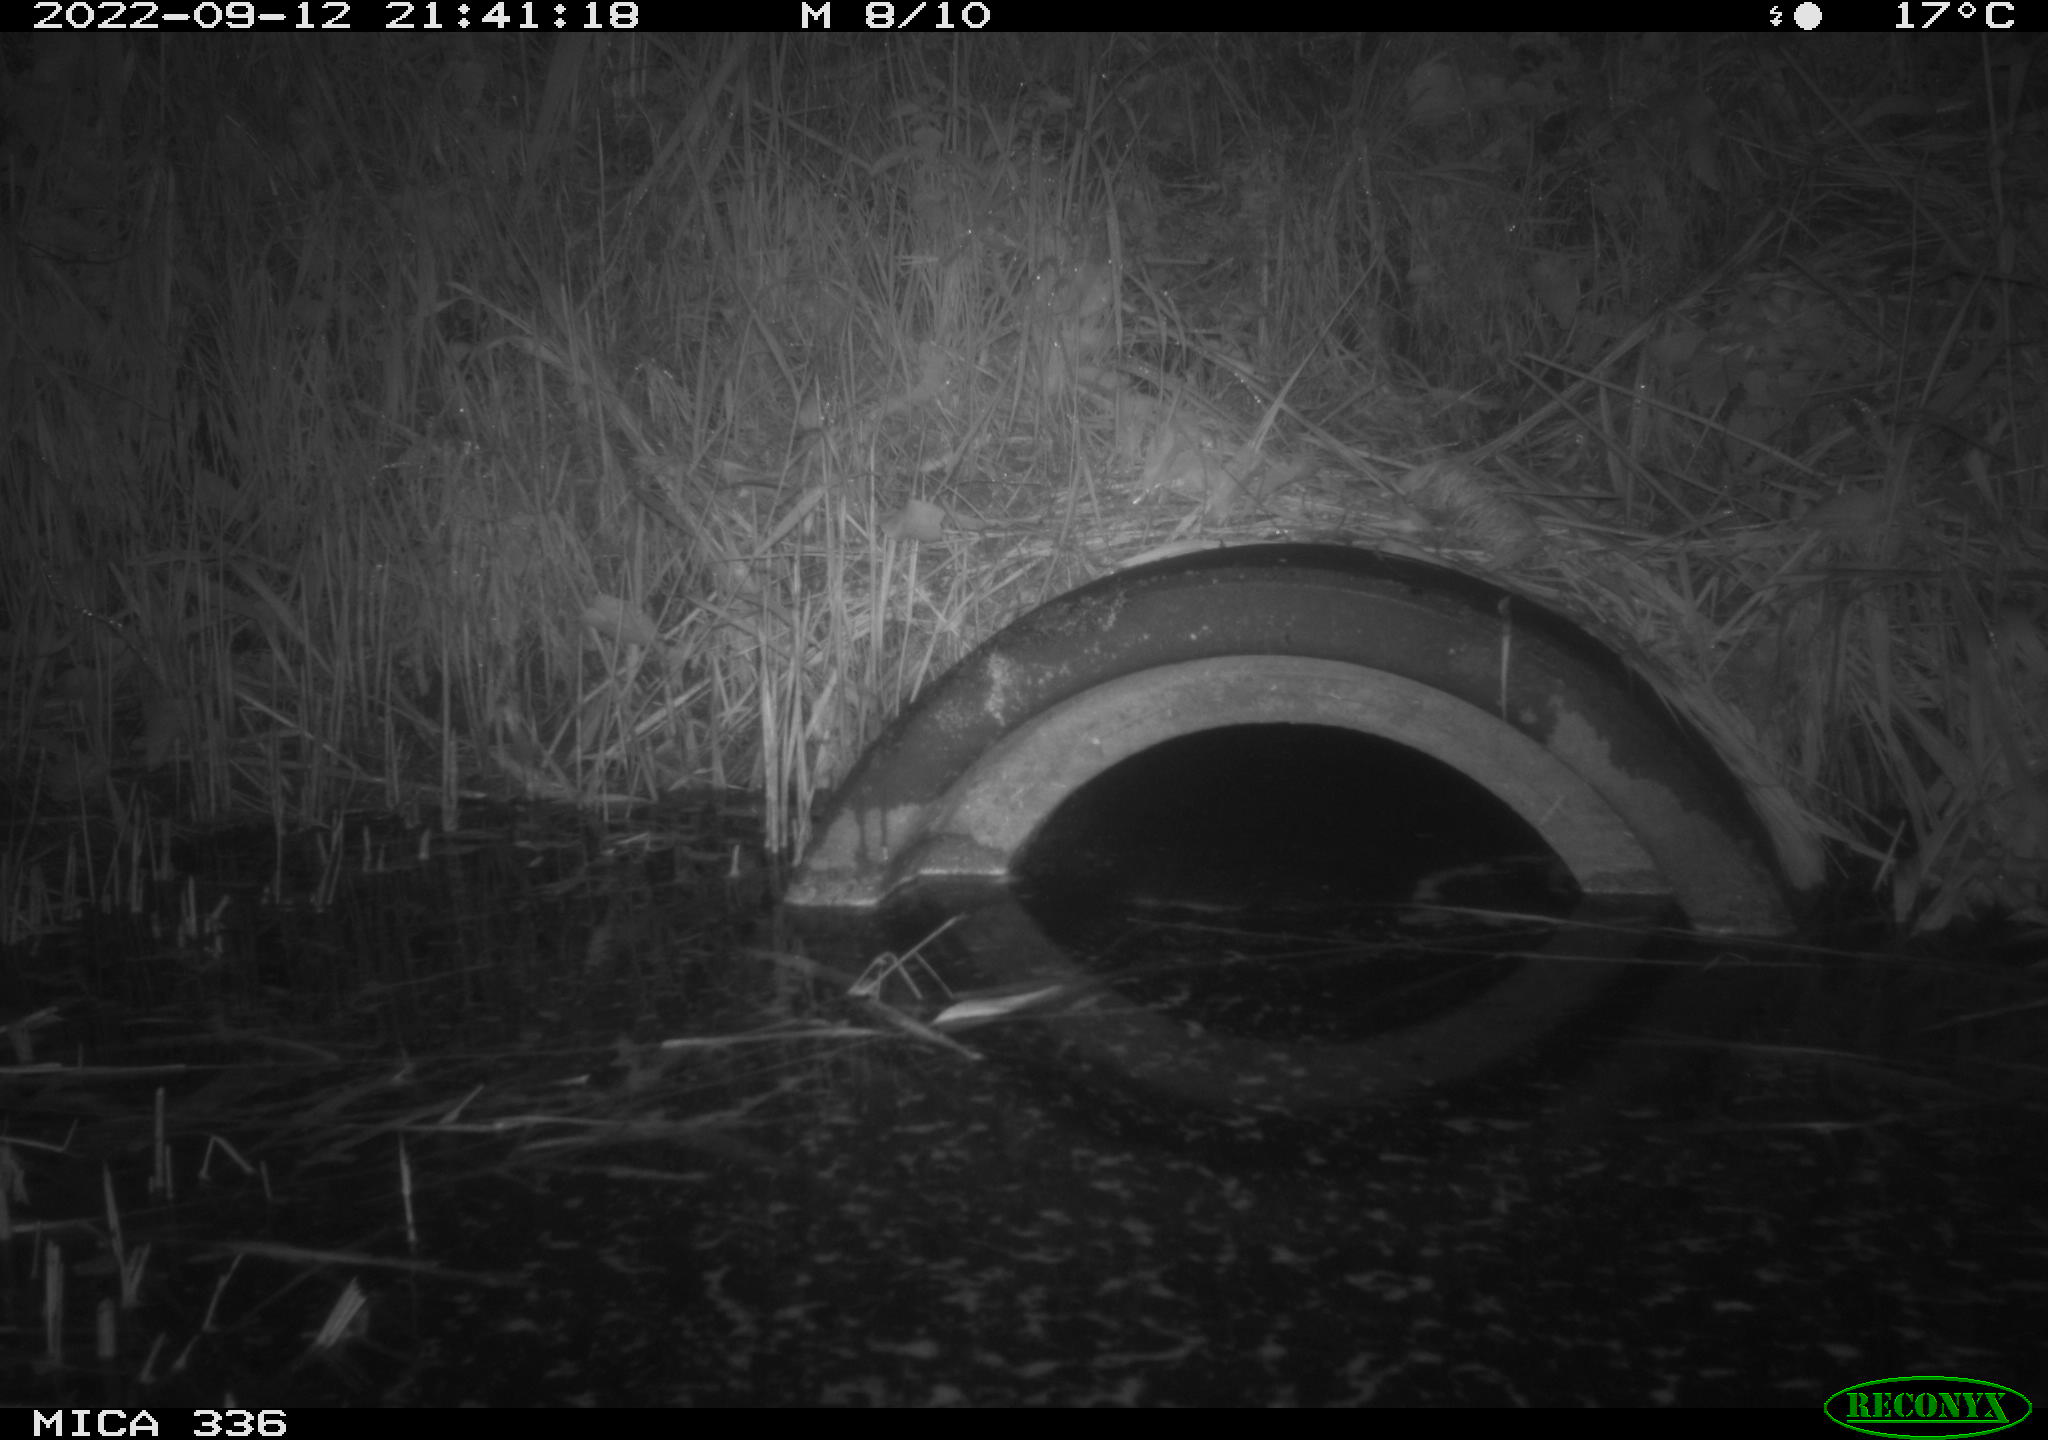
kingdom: Animalia
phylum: Chordata
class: Mammalia
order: Rodentia
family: Muridae
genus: Rattus
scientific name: Rattus norvegicus
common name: Brown rat
